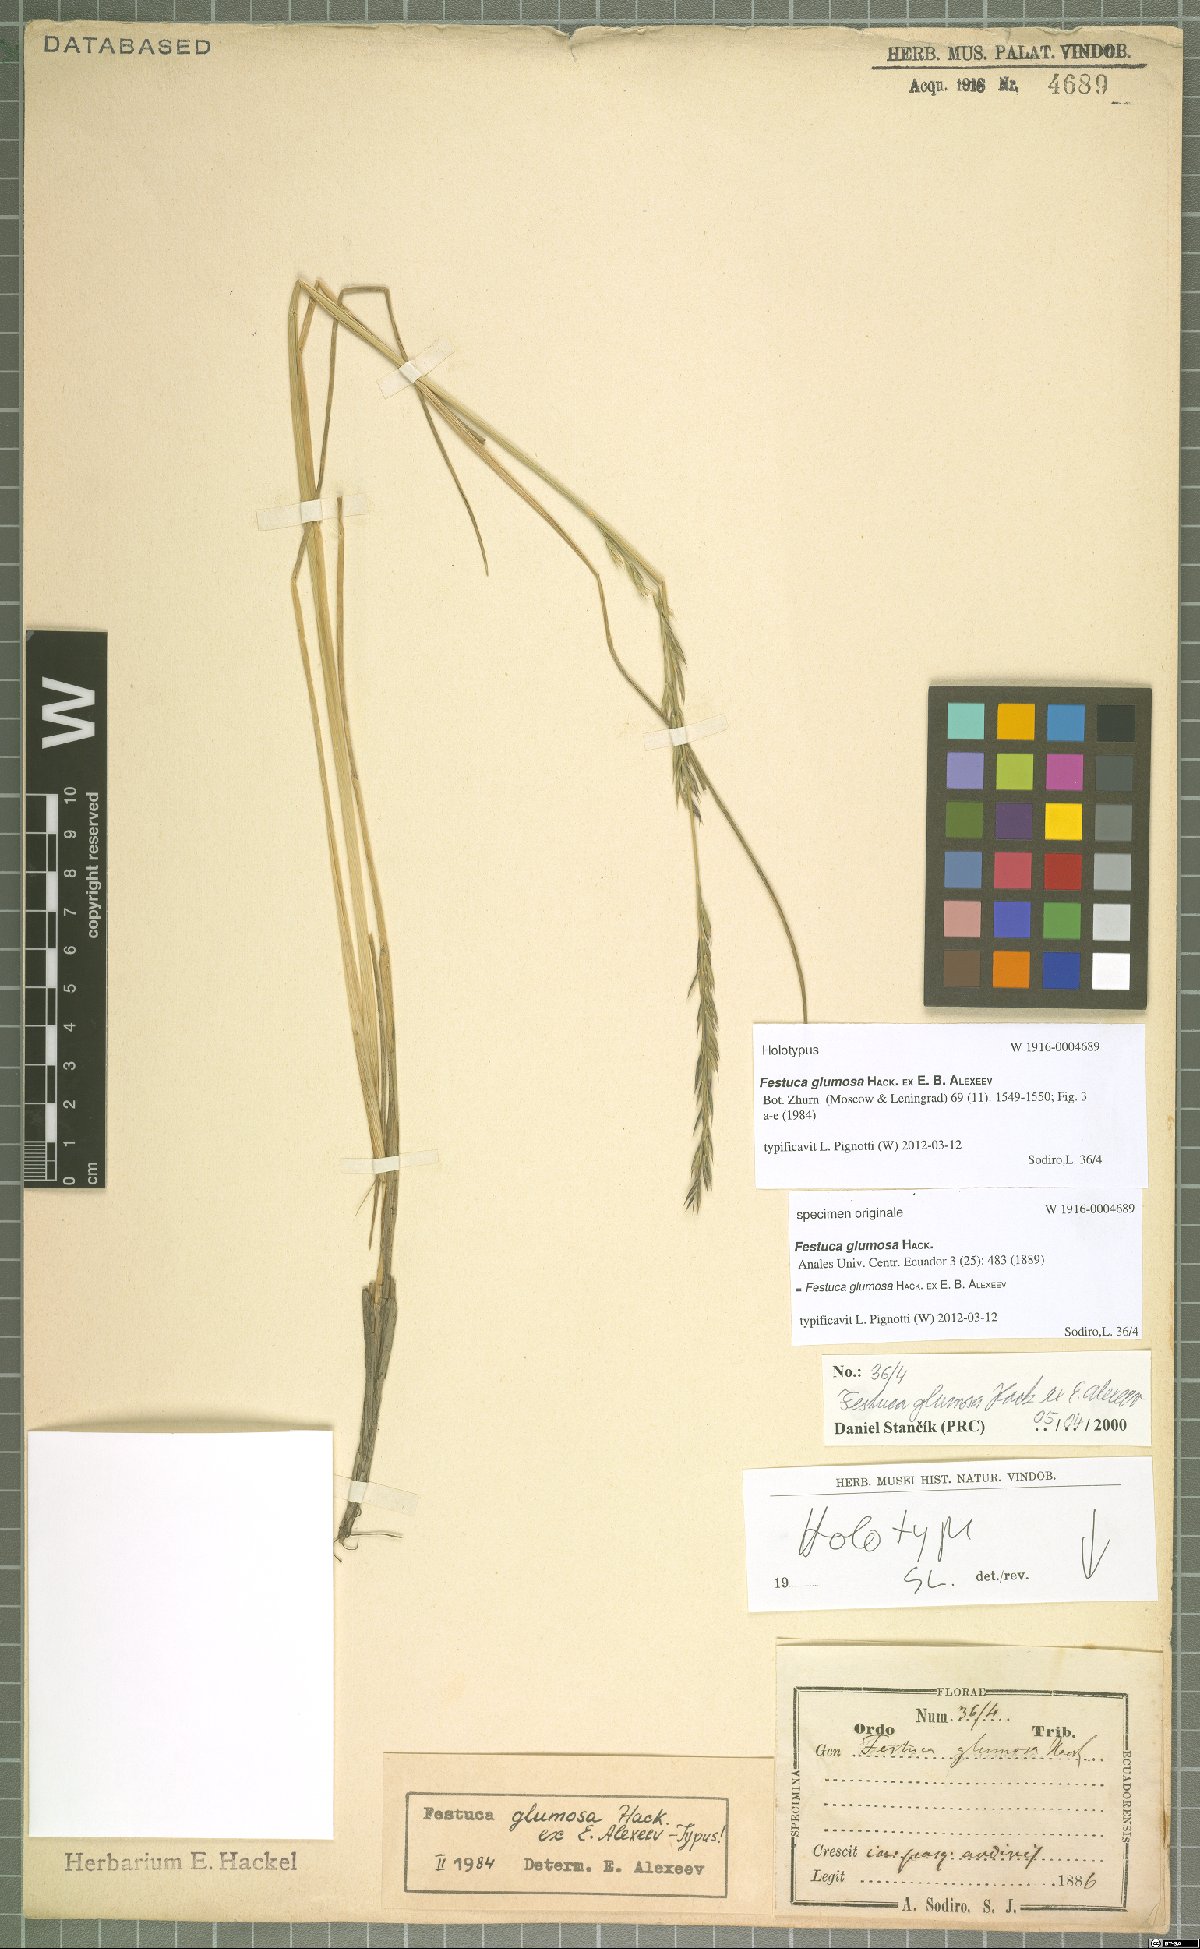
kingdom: Plantae
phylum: Tracheophyta
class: Liliopsida
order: Poales
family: Poaceae
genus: Festuca
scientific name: Festuca glumosa
